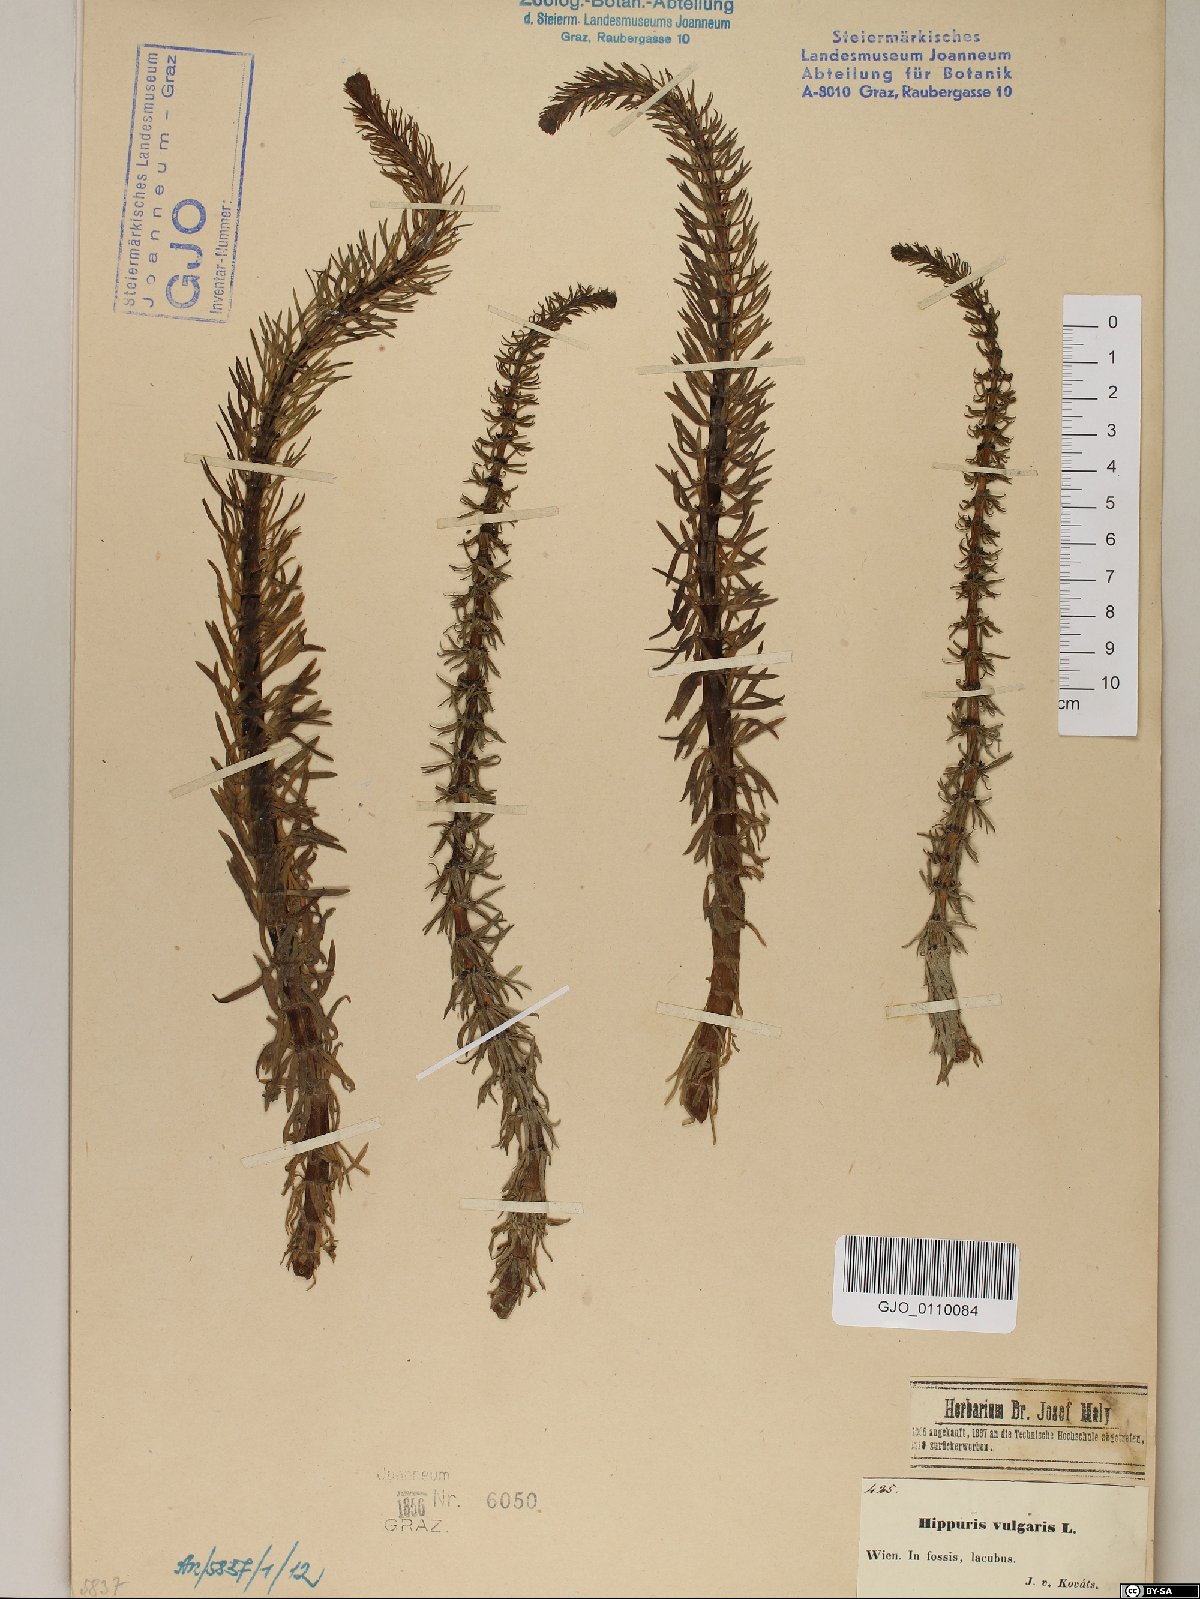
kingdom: Plantae
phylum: Tracheophyta
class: Magnoliopsida
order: Lamiales
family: Plantaginaceae
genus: Hippuris
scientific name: Hippuris vulgaris
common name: Mare's-tail
